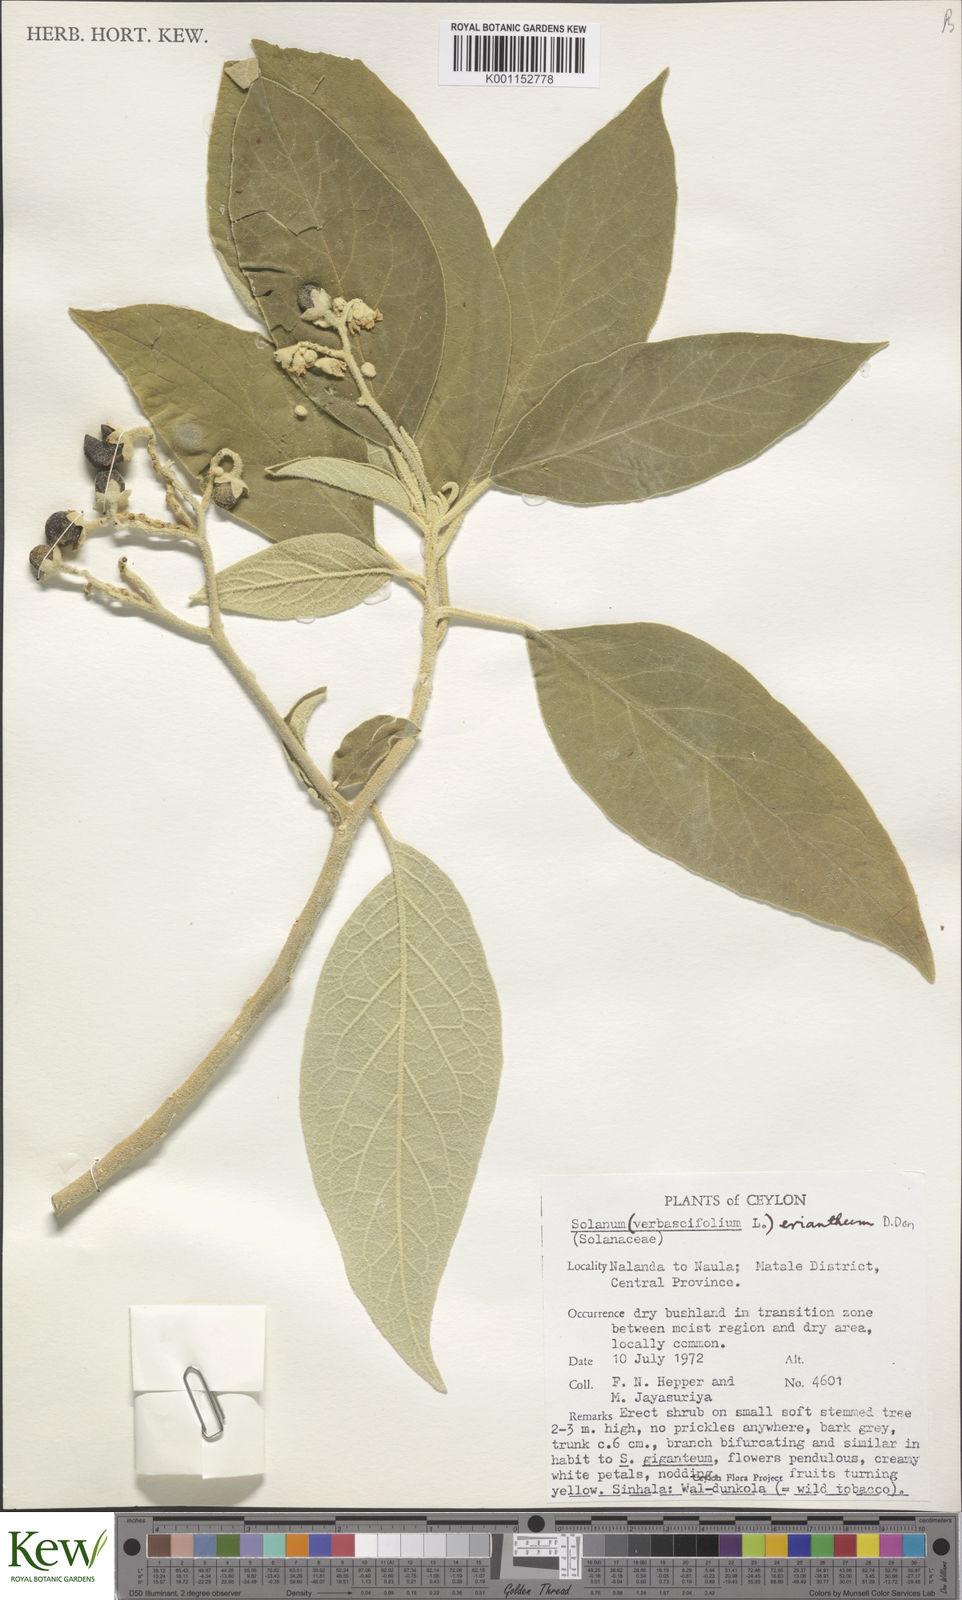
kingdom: Plantae
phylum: Tracheophyta
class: Magnoliopsida
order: Solanales
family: Solanaceae
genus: Solanum
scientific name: Solanum erianthum
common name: Tobacco-tree
